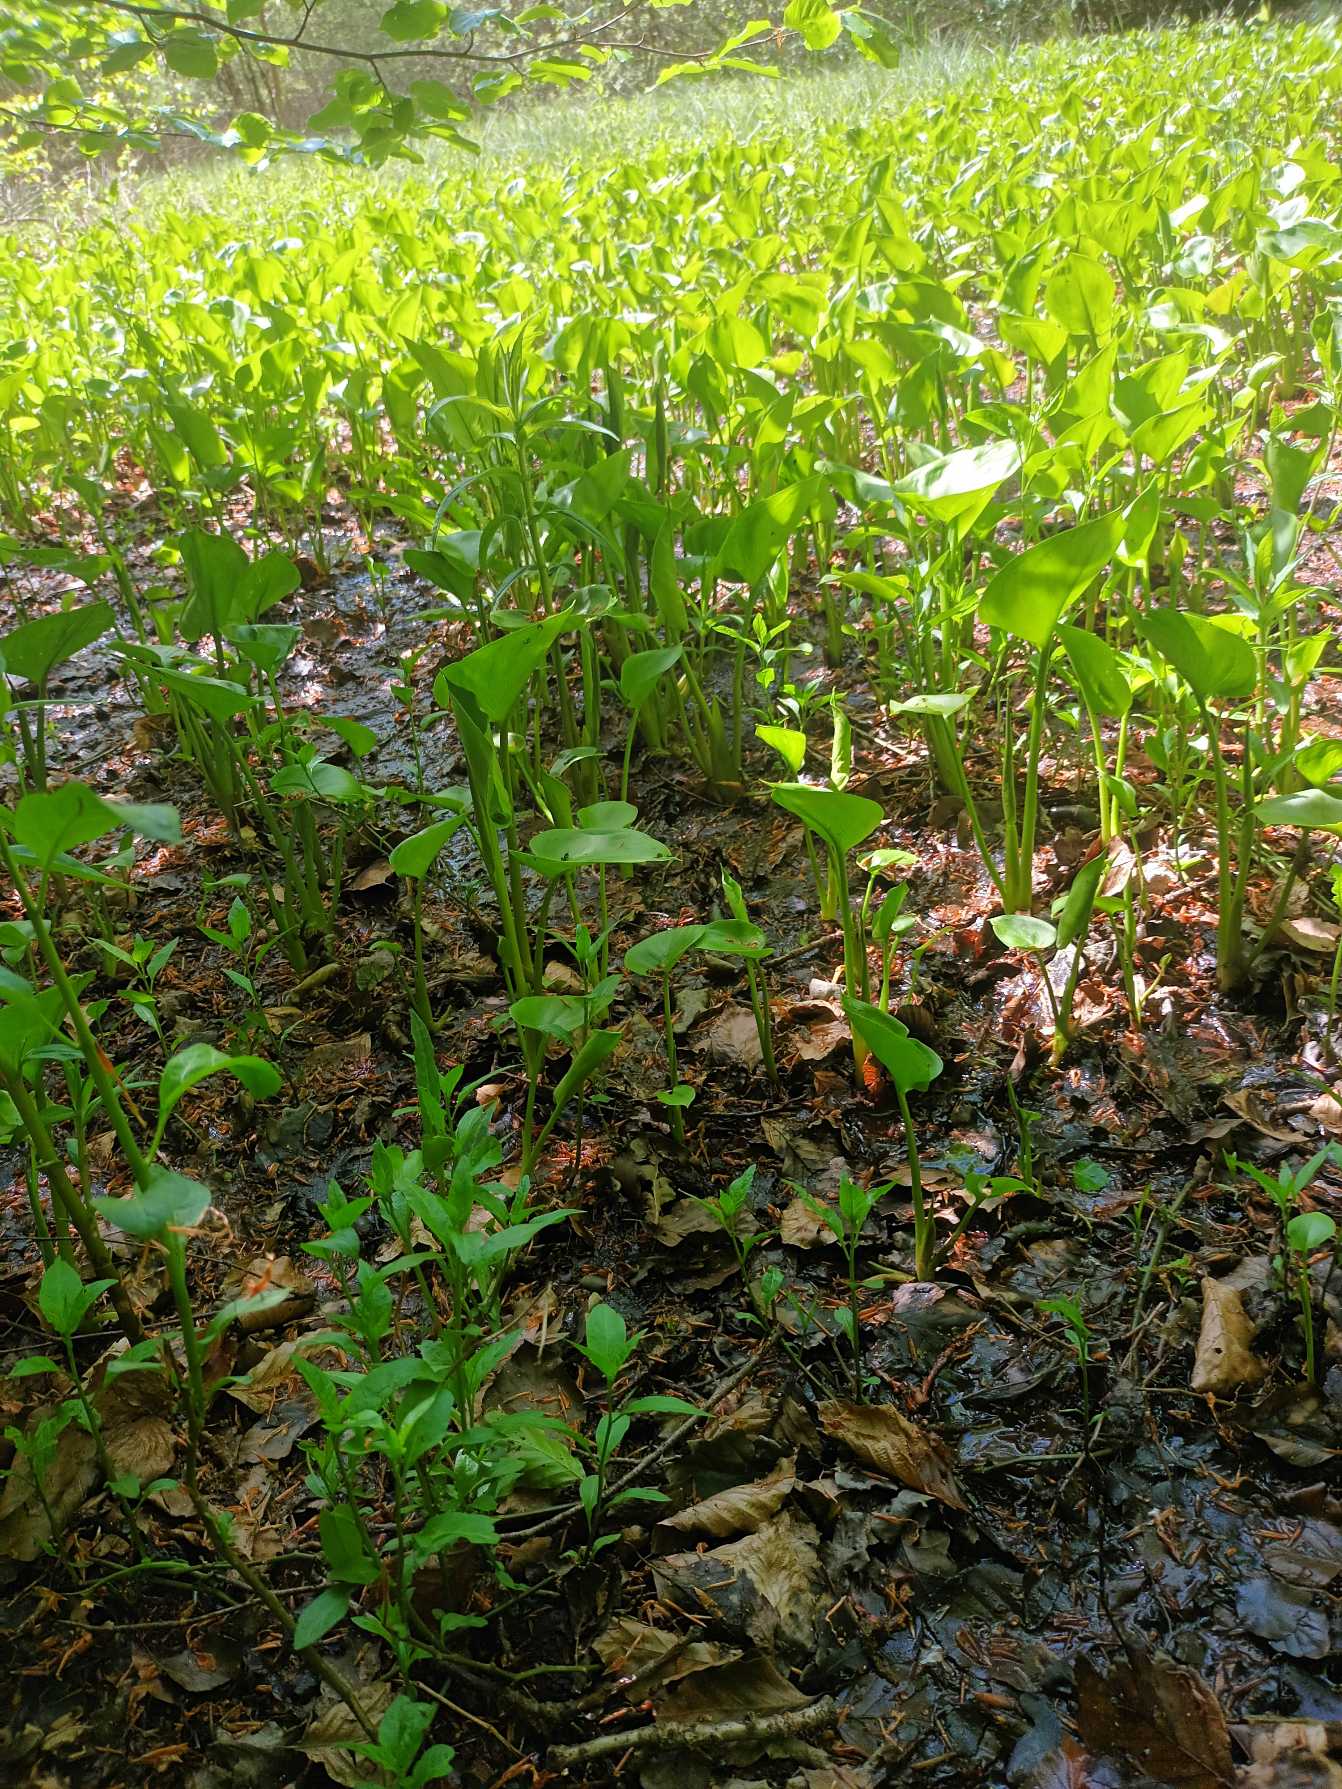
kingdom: Plantae
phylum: Tracheophyta
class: Liliopsida
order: Alismatales
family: Araceae
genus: Calla
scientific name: Calla palustris
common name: Kærmysse
